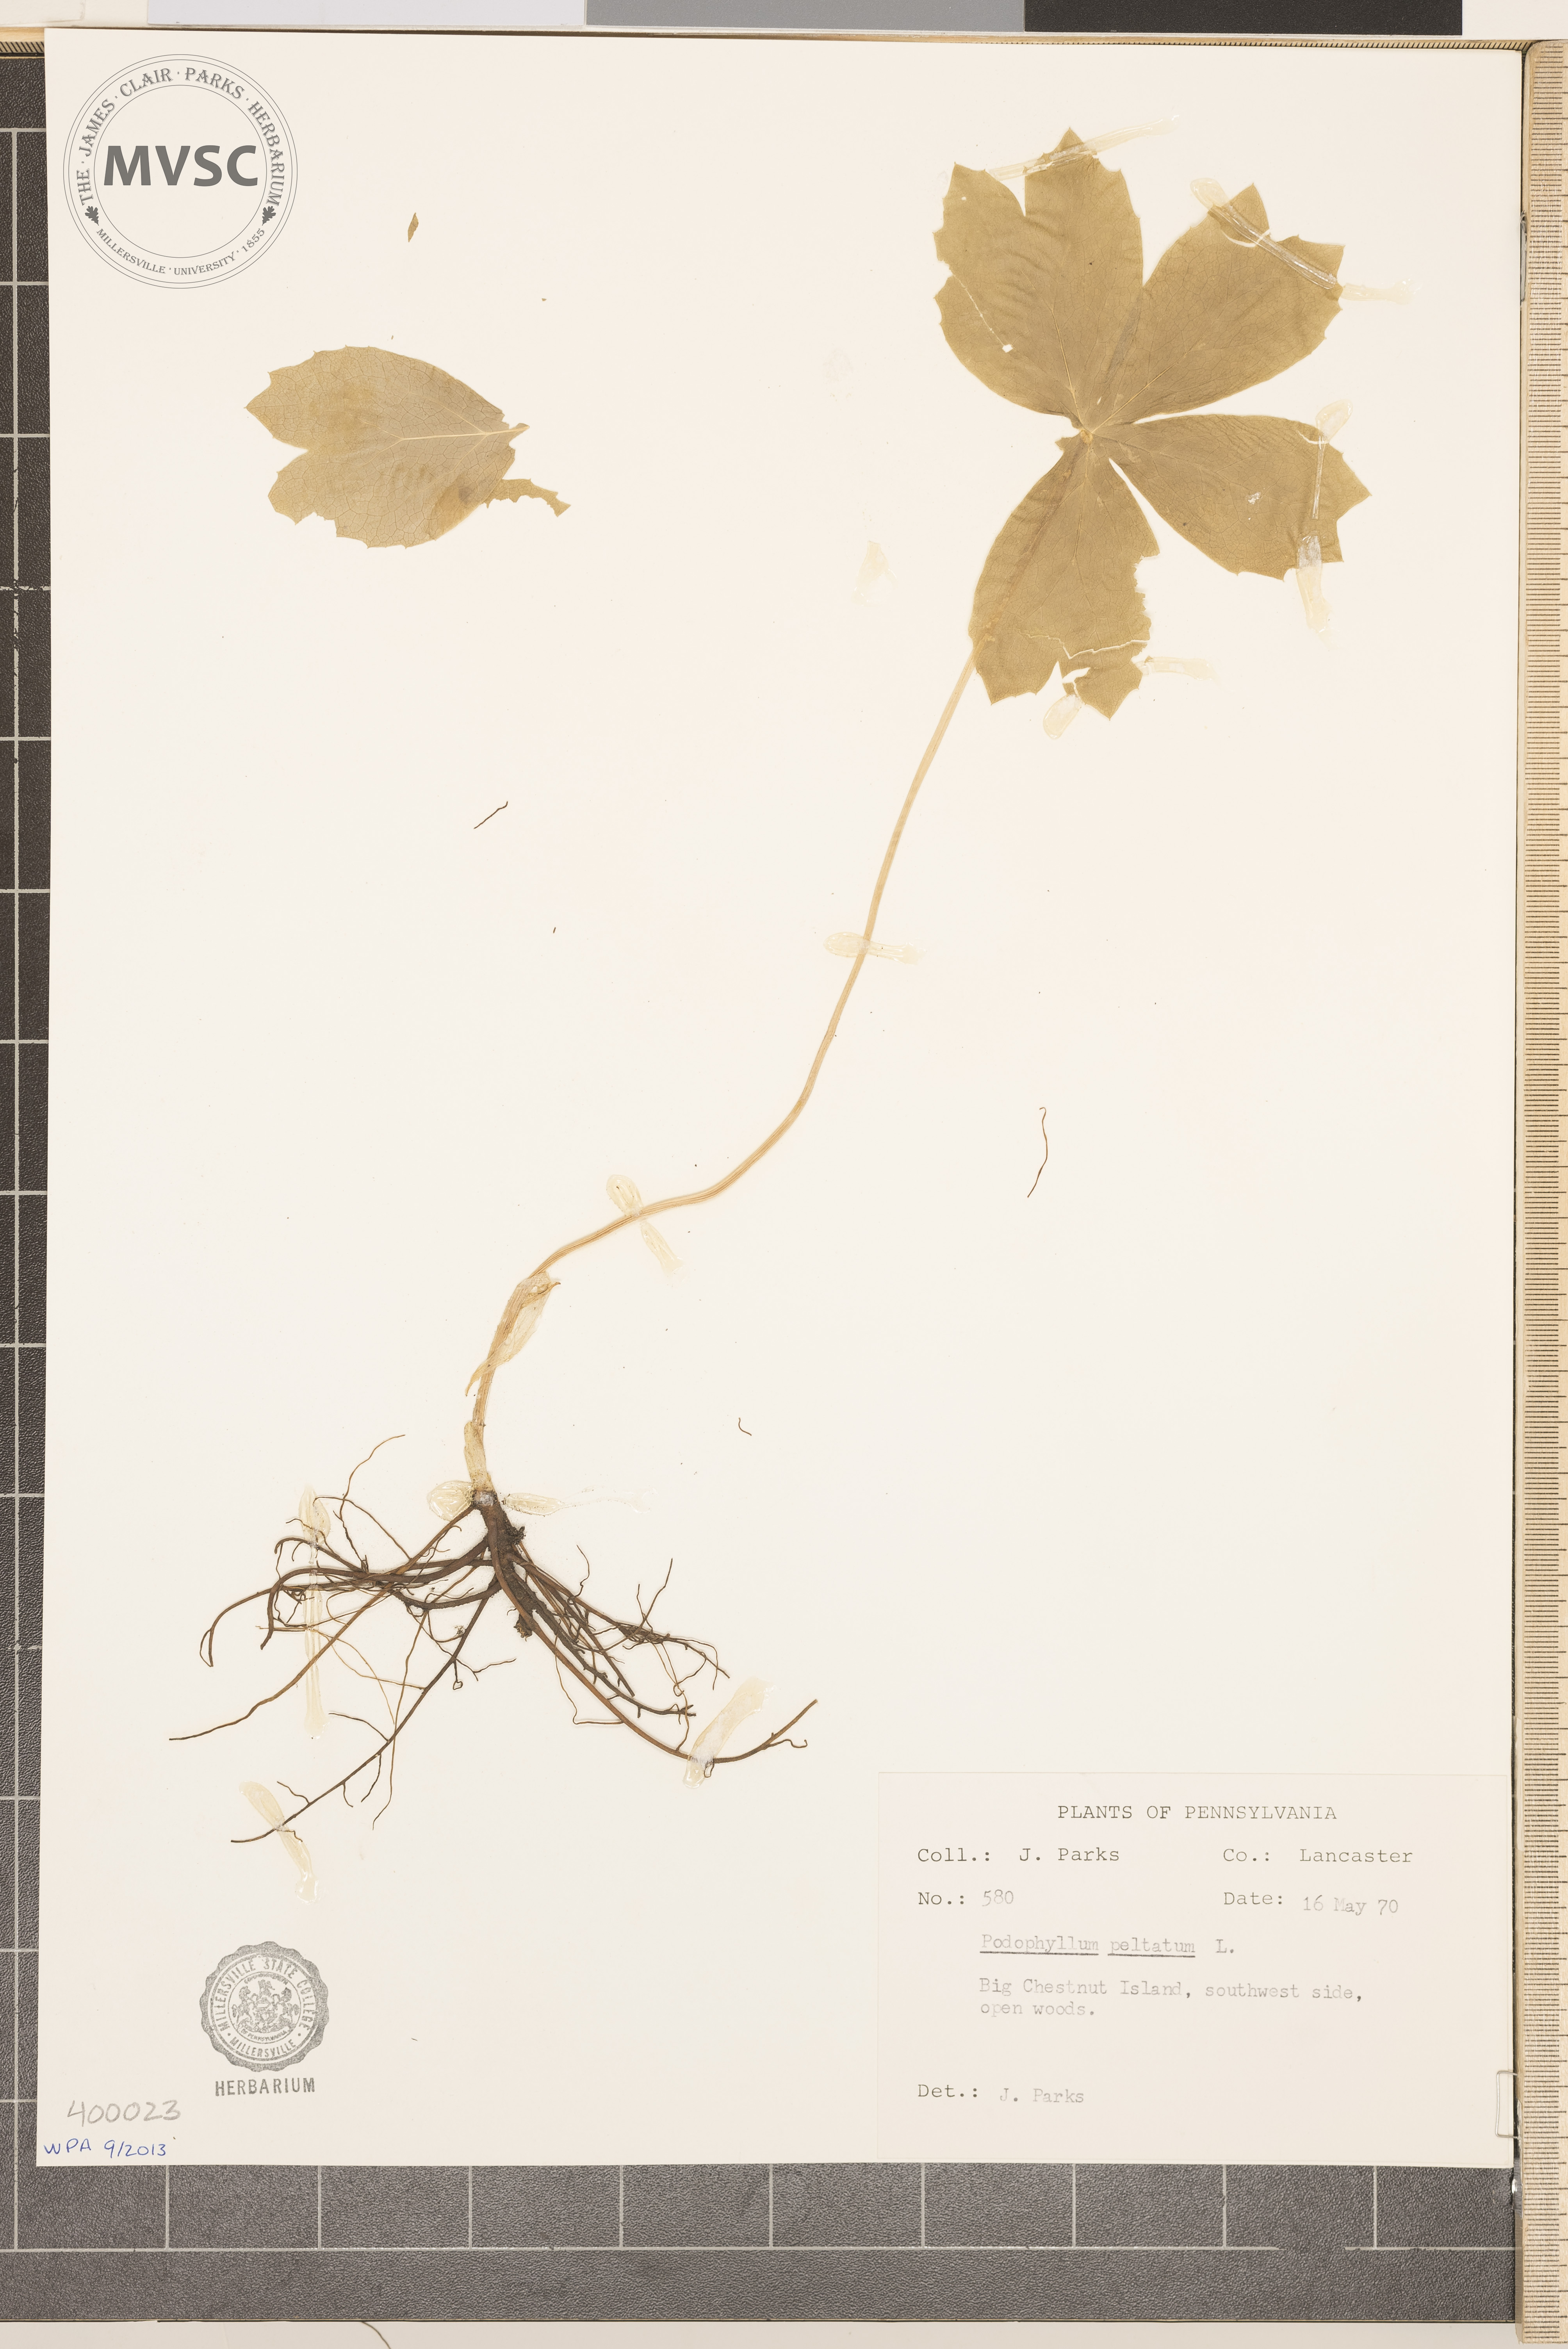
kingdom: Plantae
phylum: Tracheophyta
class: Magnoliopsida
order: Ranunculales
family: Berberidaceae
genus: Podophyllum
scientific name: Podophyllum peltatum
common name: May-apple
